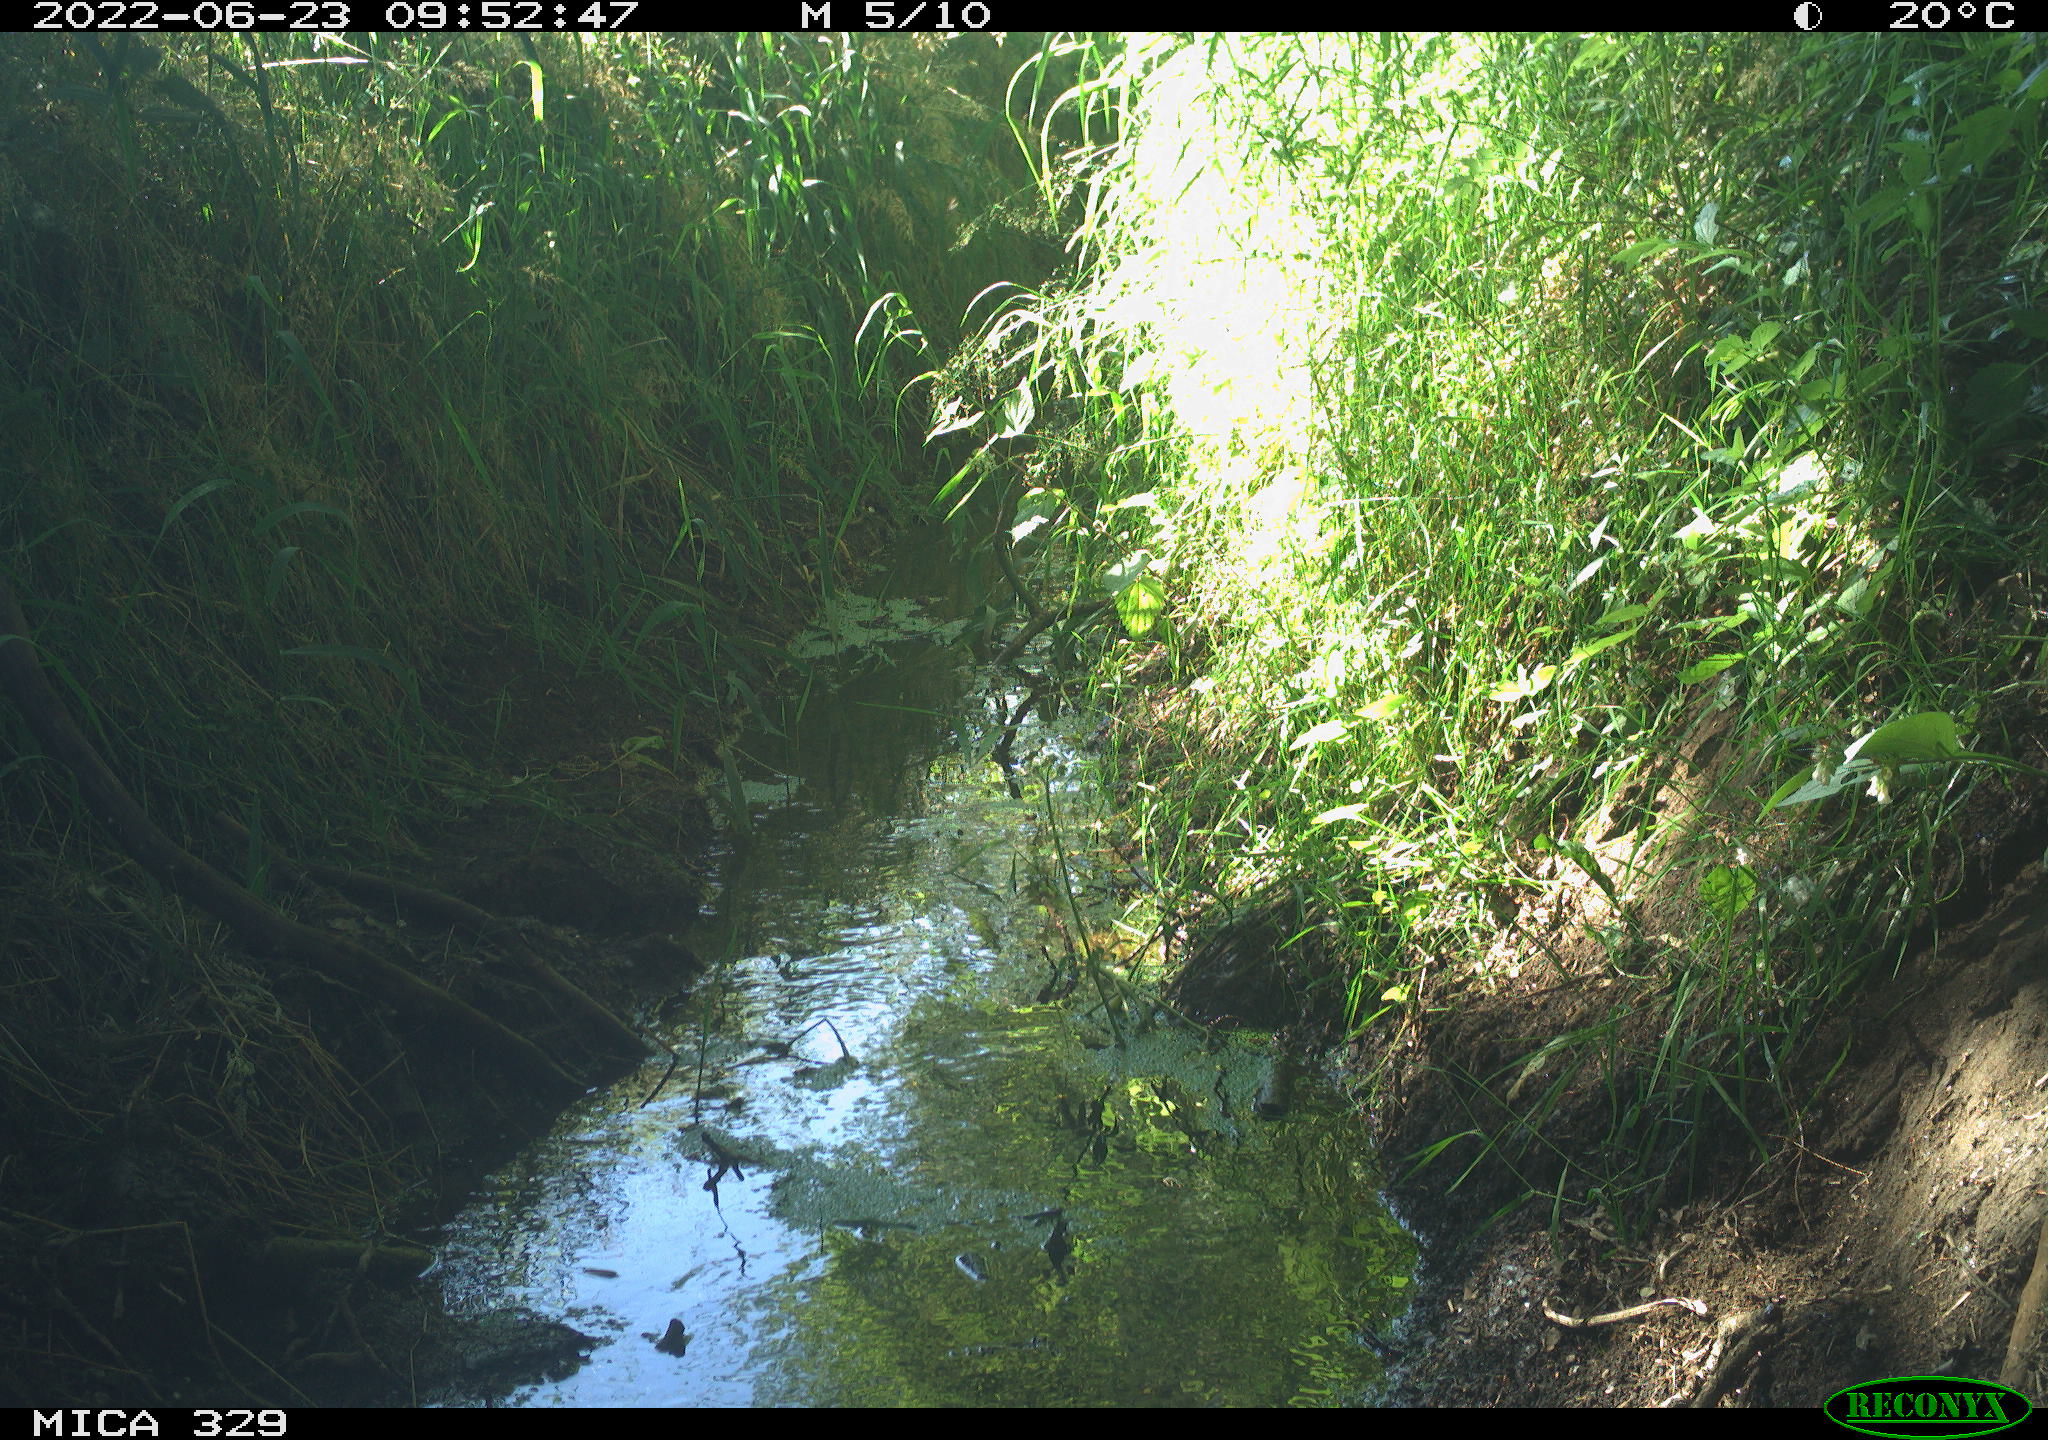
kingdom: Animalia
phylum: Chordata
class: Aves
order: Passeriformes
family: Paridae
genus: Cyanistes
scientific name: Cyanistes caeruleus
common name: Eurasian blue tit
